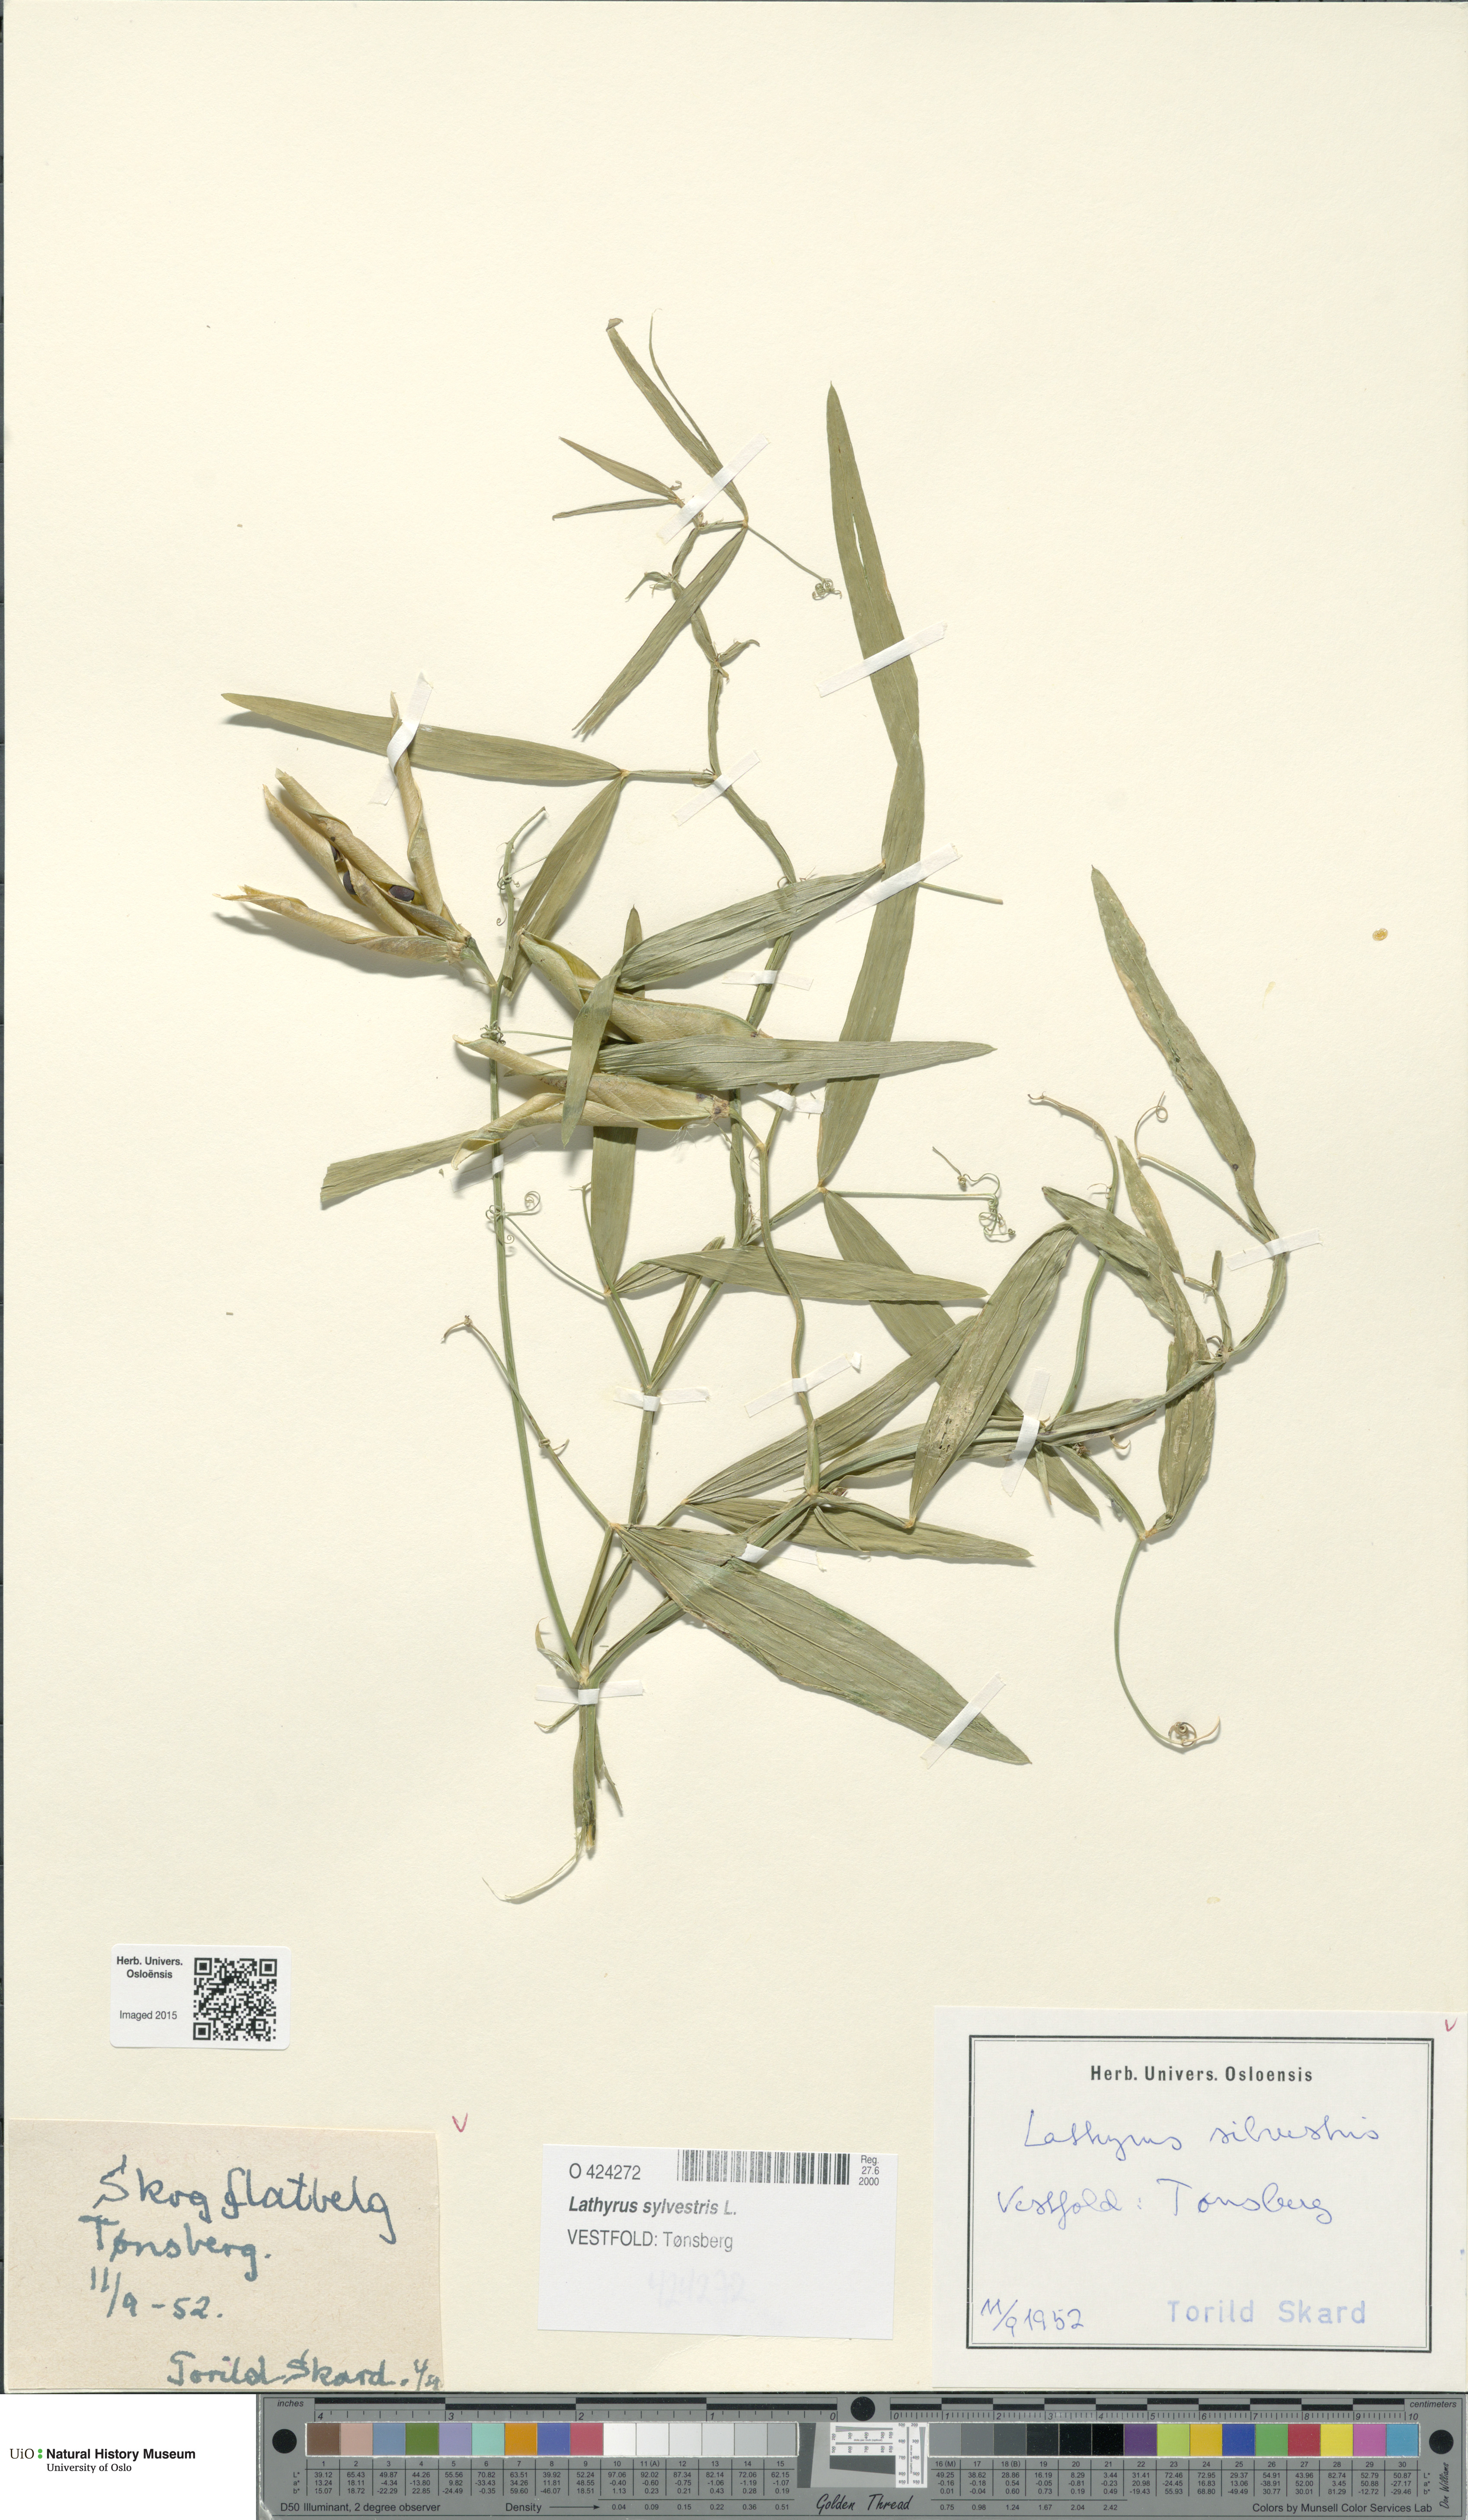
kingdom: Plantae
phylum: Tracheophyta
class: Magnoliopsida
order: Fabales
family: Fabaceae
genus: Lathyrus
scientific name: Lathyrus sylvestris
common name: Flat pea
